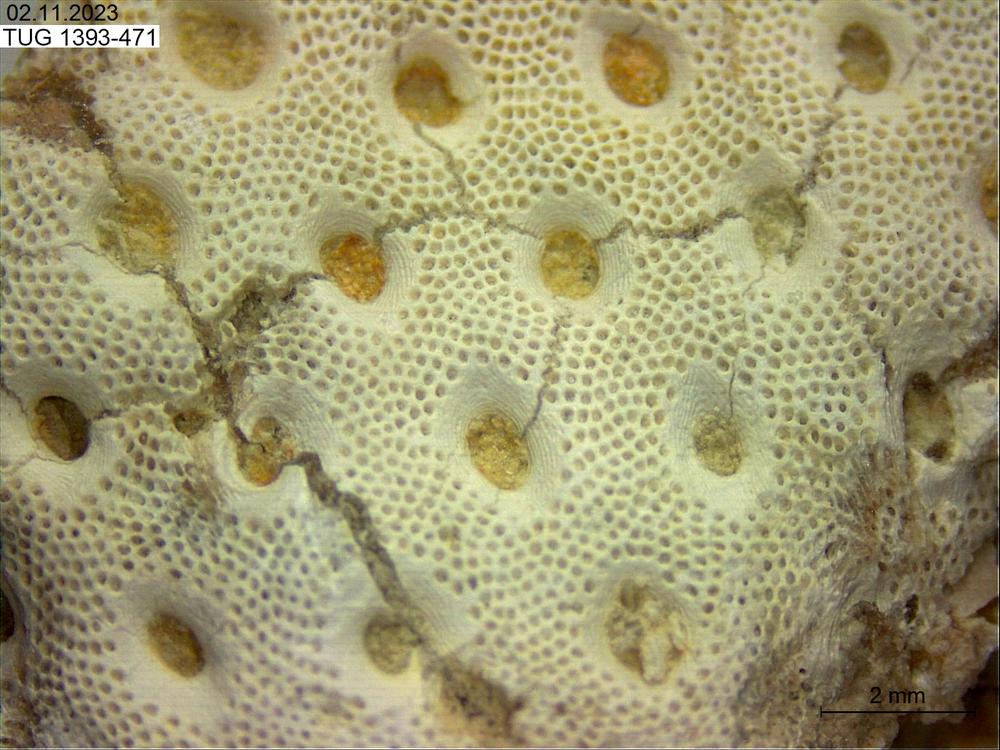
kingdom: Animalia
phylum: Bryozoa
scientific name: Bryozoa
